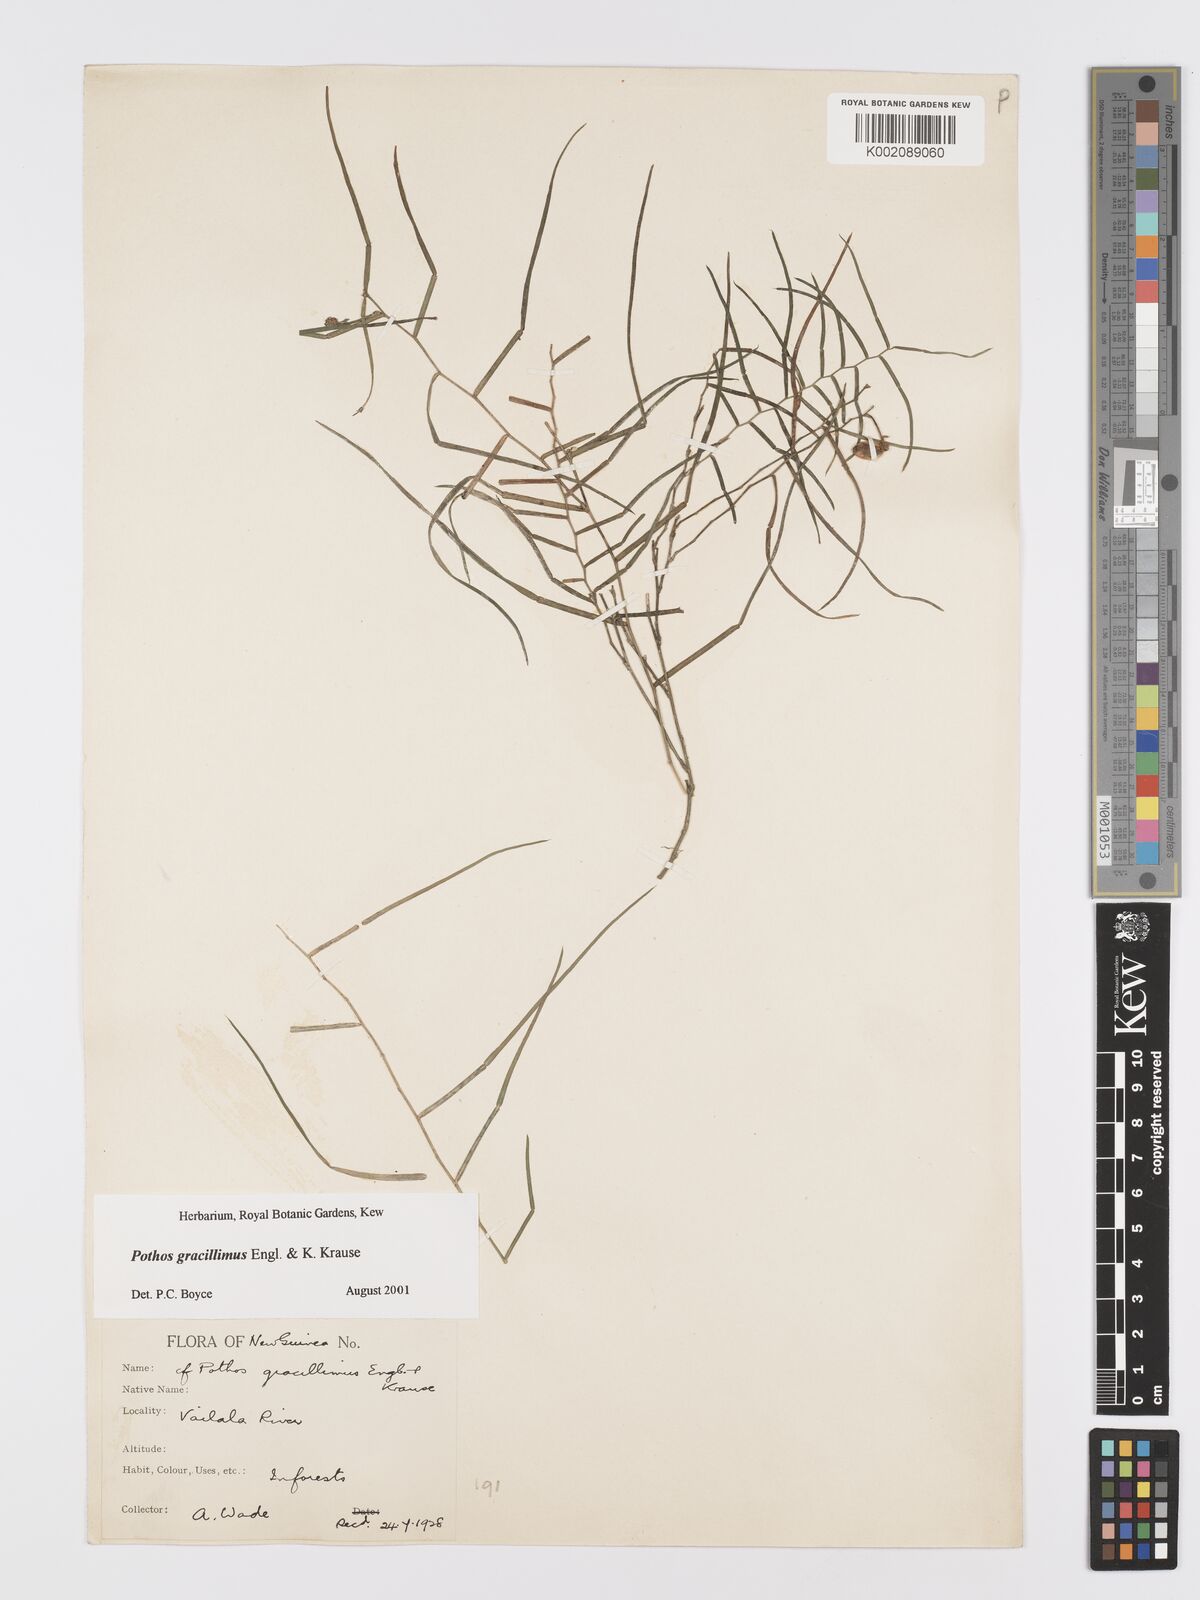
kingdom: Plantae
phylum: Tracheophyta
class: Liliopsida
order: Alismatales
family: Araceae
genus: Pothos
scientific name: Pothos gracillimus
